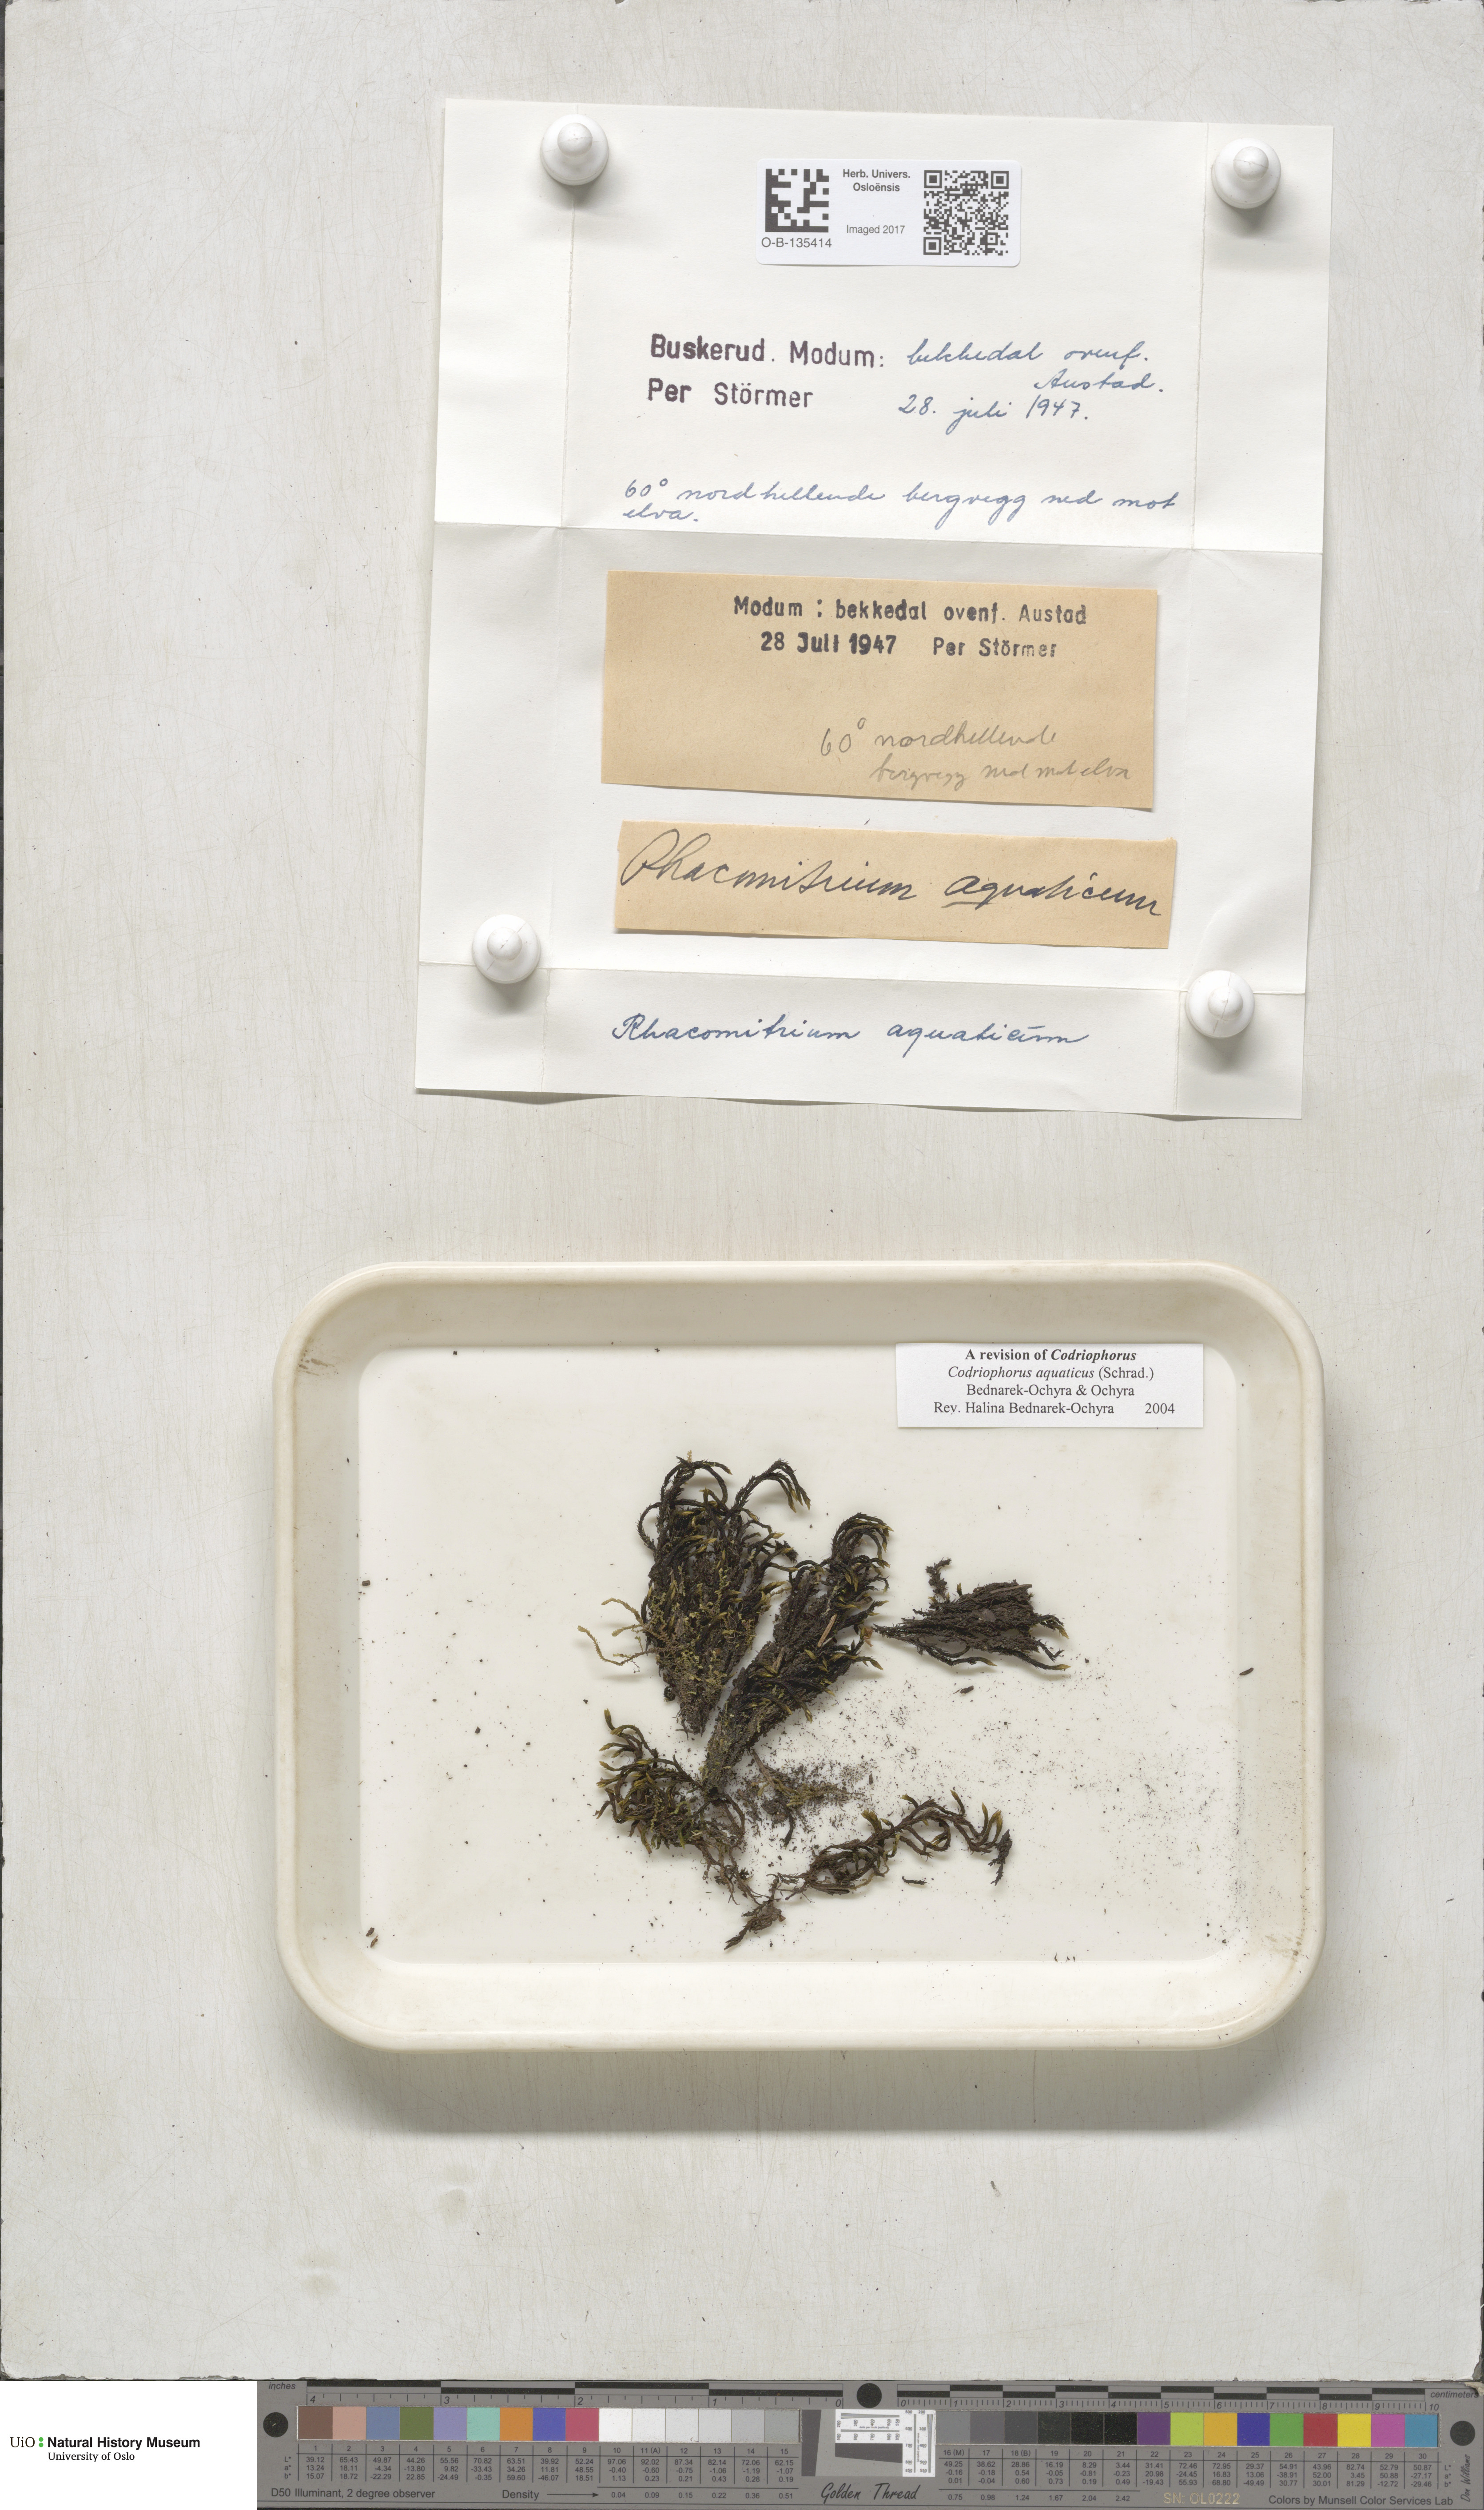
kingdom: Plantae
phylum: Bryophyta
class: Bryopsida
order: Grimmiales
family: Grimmiaceae
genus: Codriophorus
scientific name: Codriophorus aquaticus
